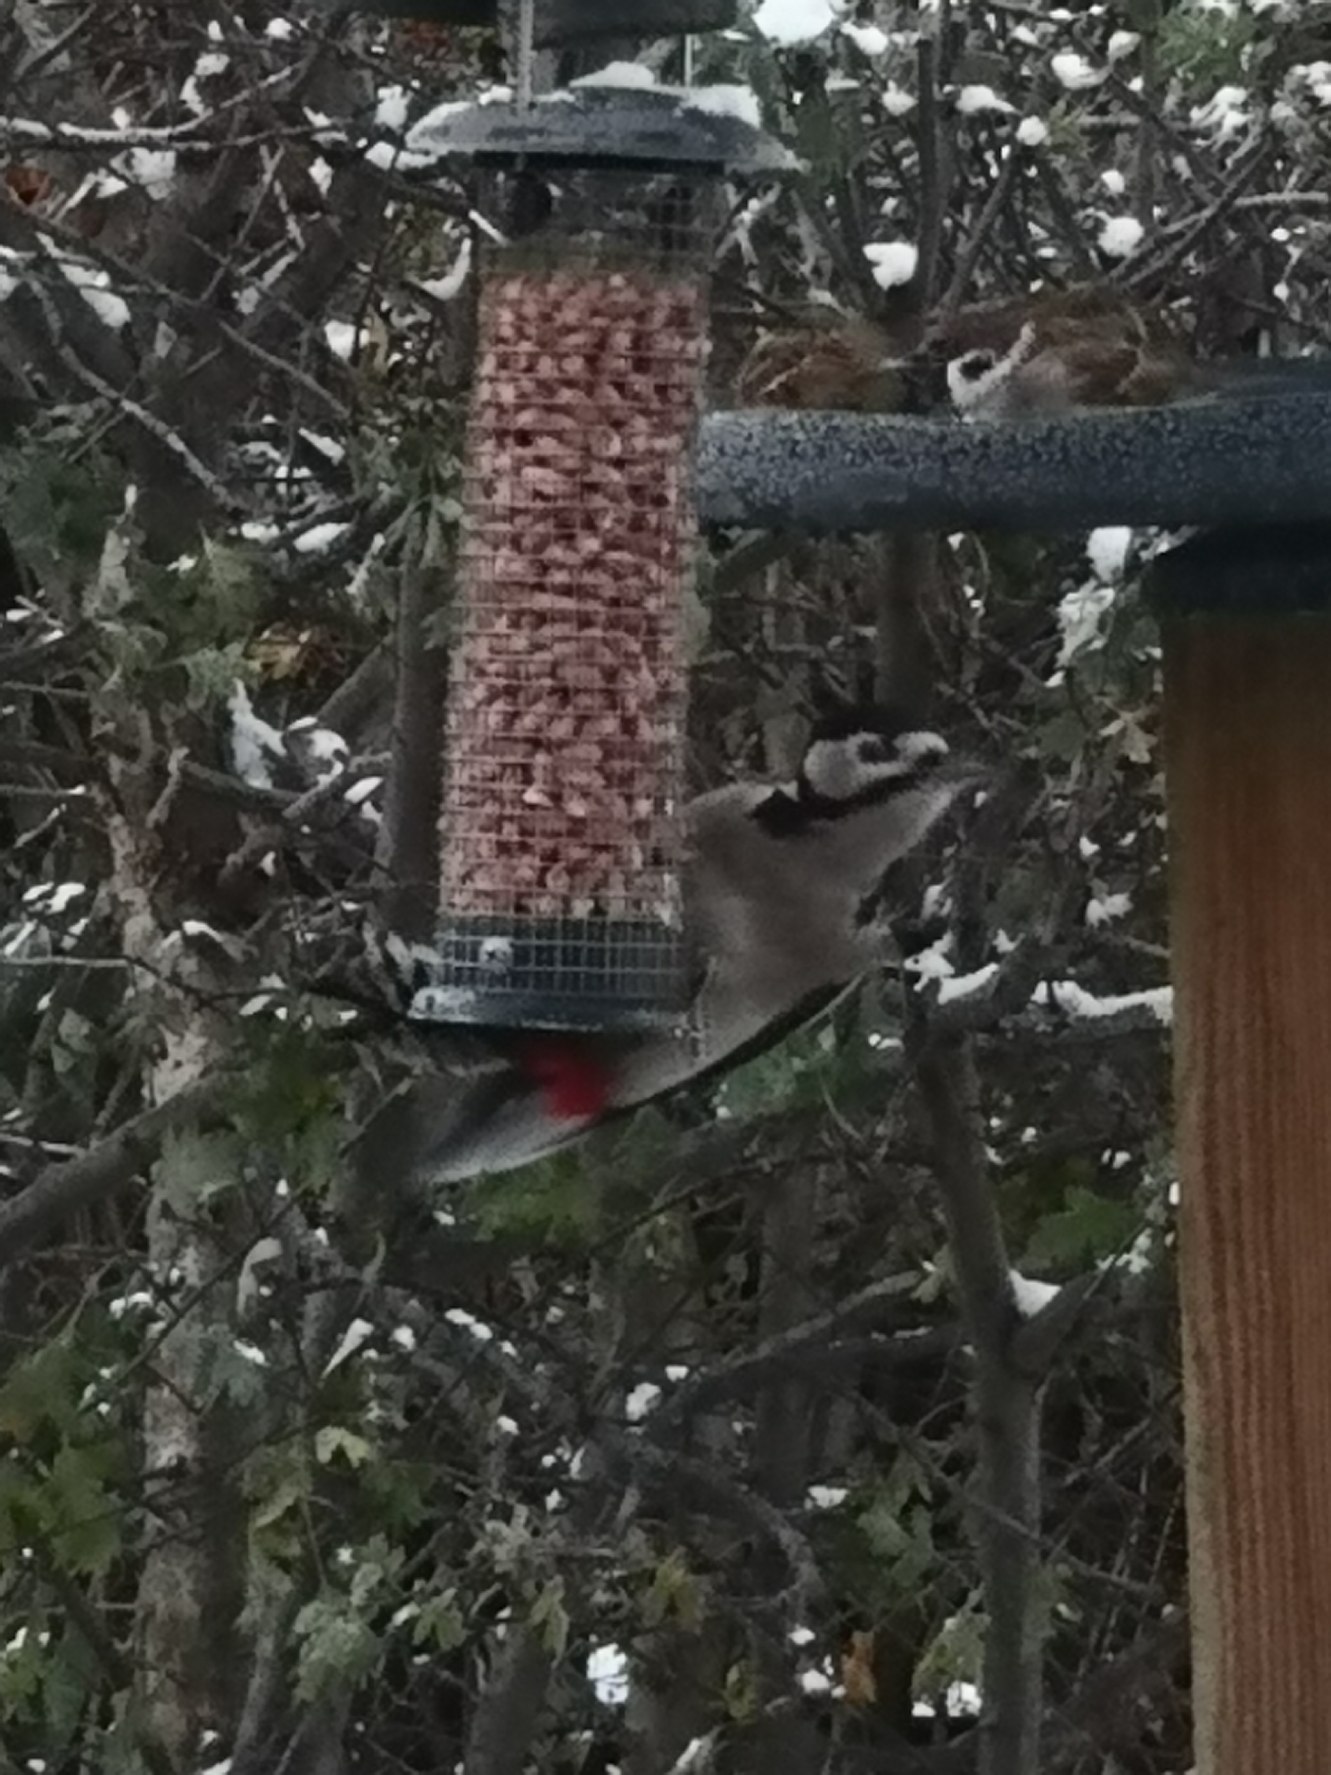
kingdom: Animalia
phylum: Chordata
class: Aves
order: Piciformes
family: Picidae
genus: Dendrocopos
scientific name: Dendrocopos major
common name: Stor flagspætte
